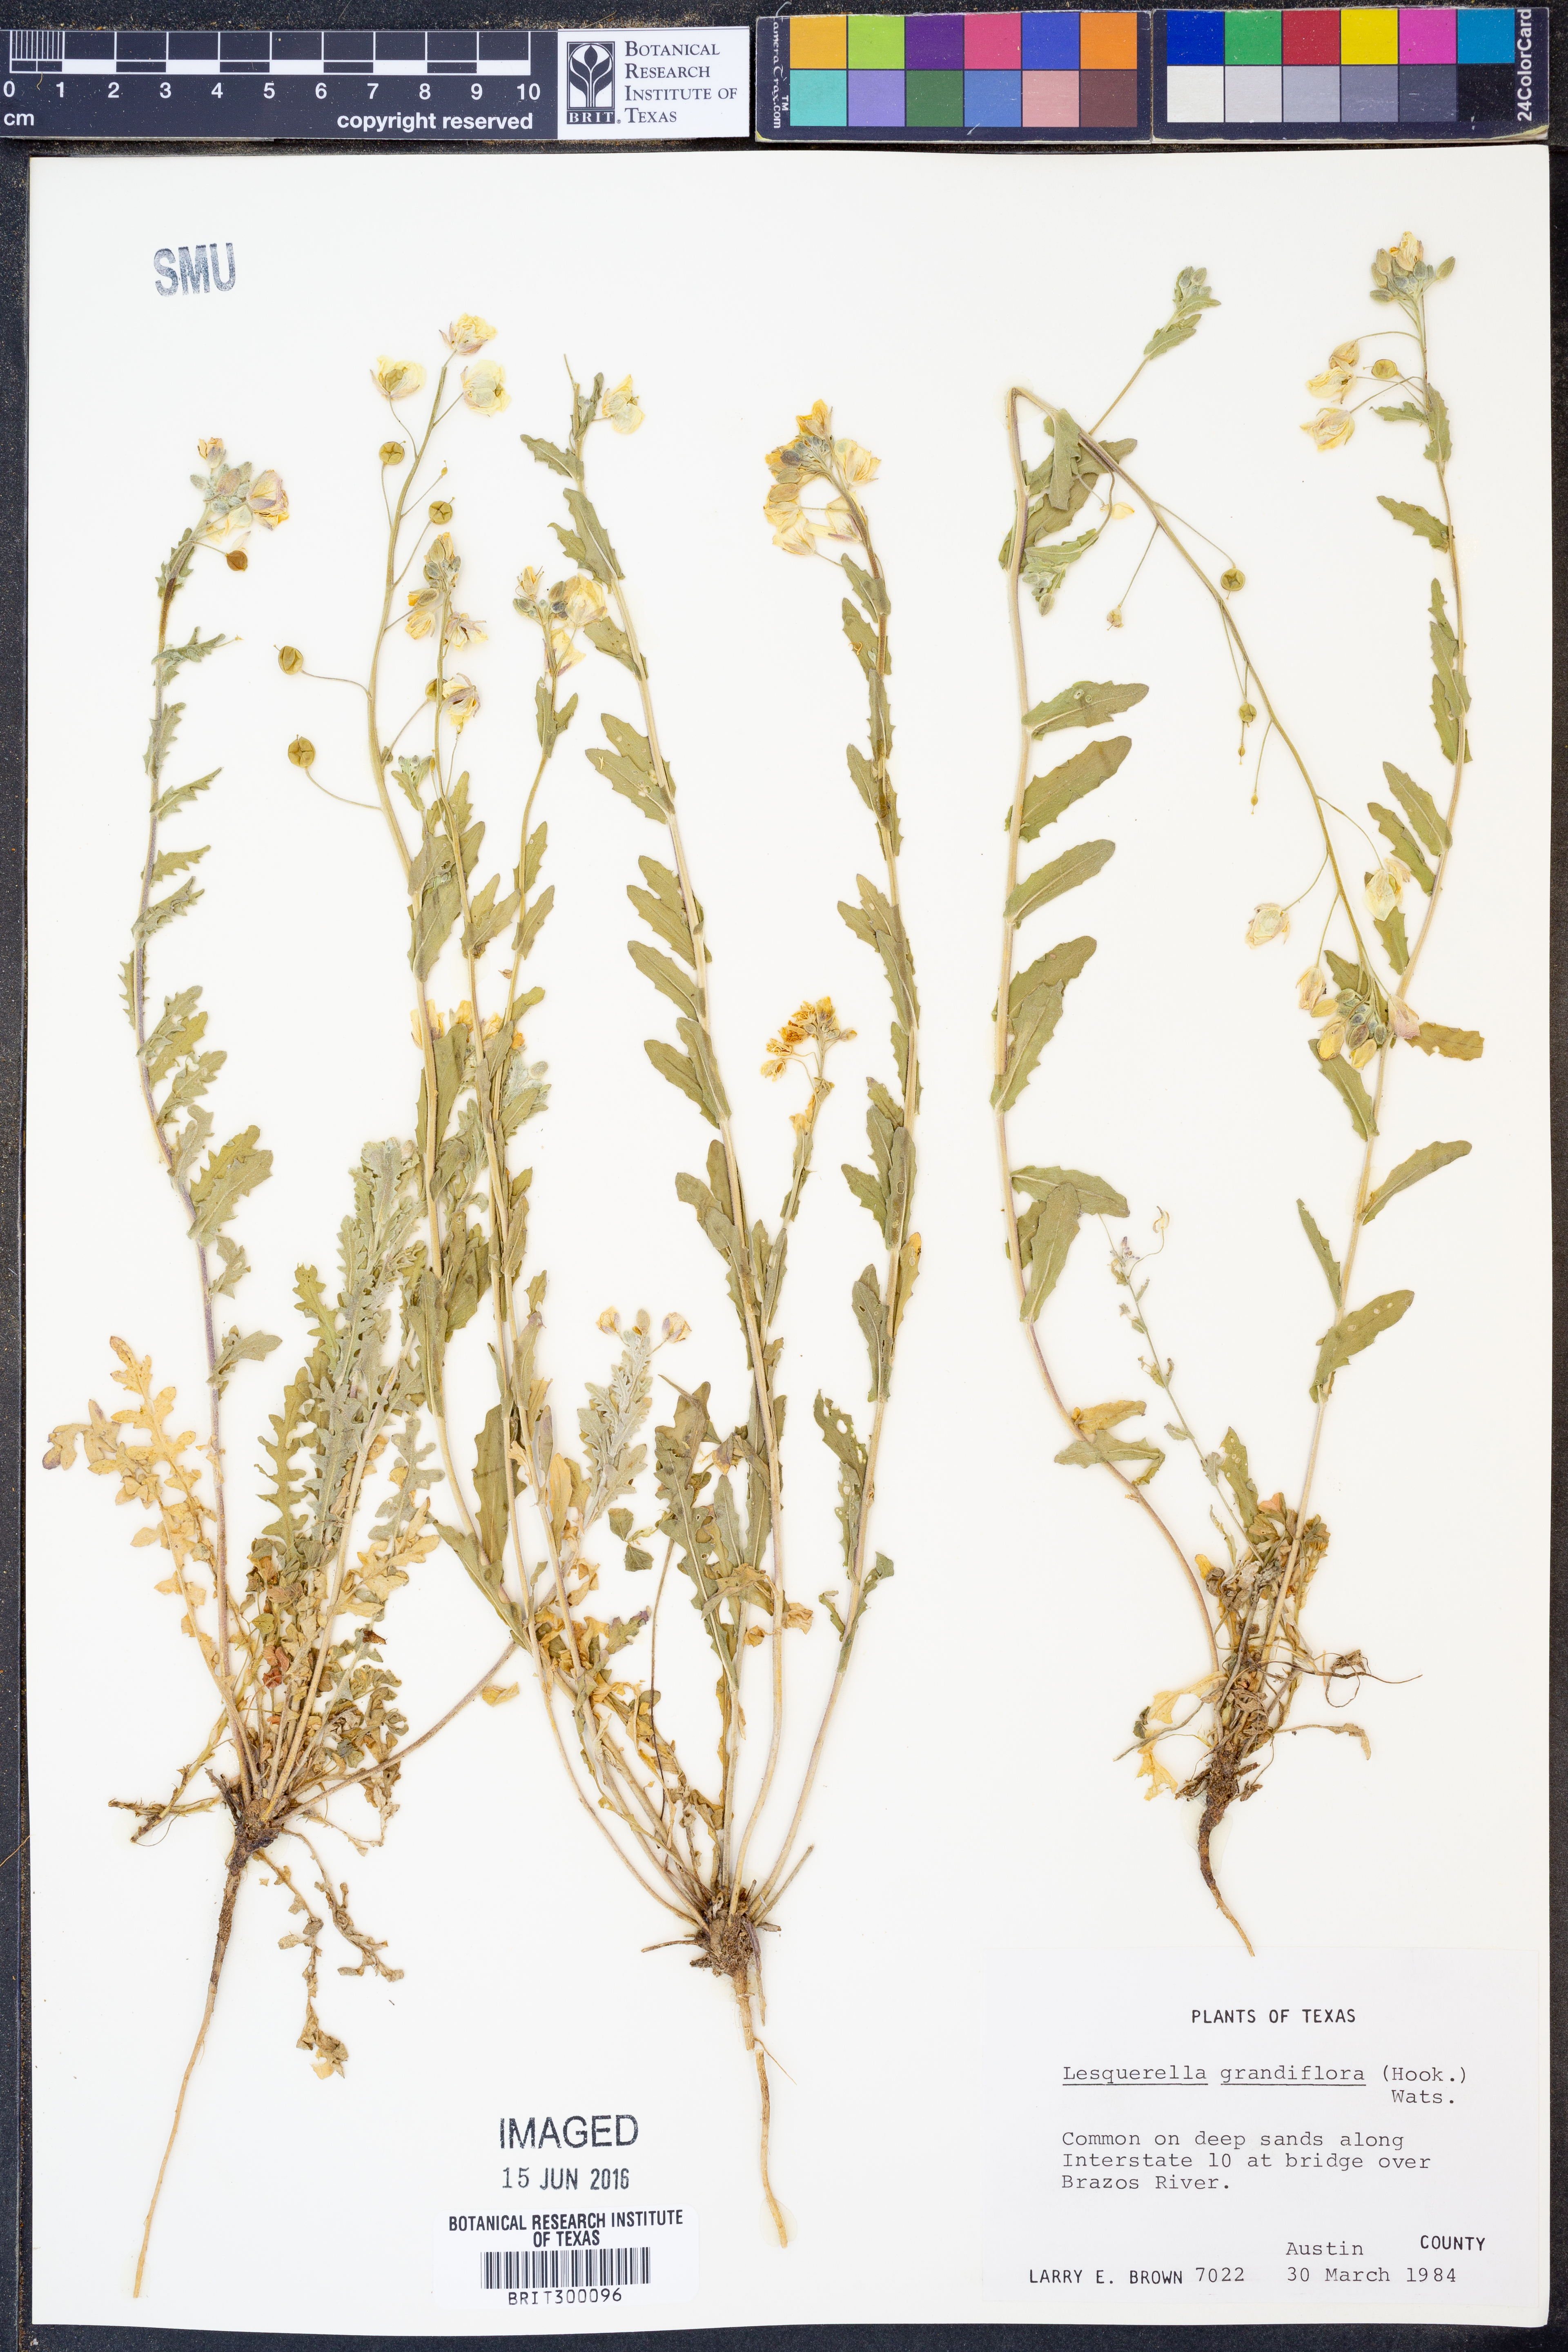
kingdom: Plantae
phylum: Tracheophyta
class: Magnoliopsida
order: Brassicales
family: Brassicaceae
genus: Paysonia
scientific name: Paysonia grandiflora
